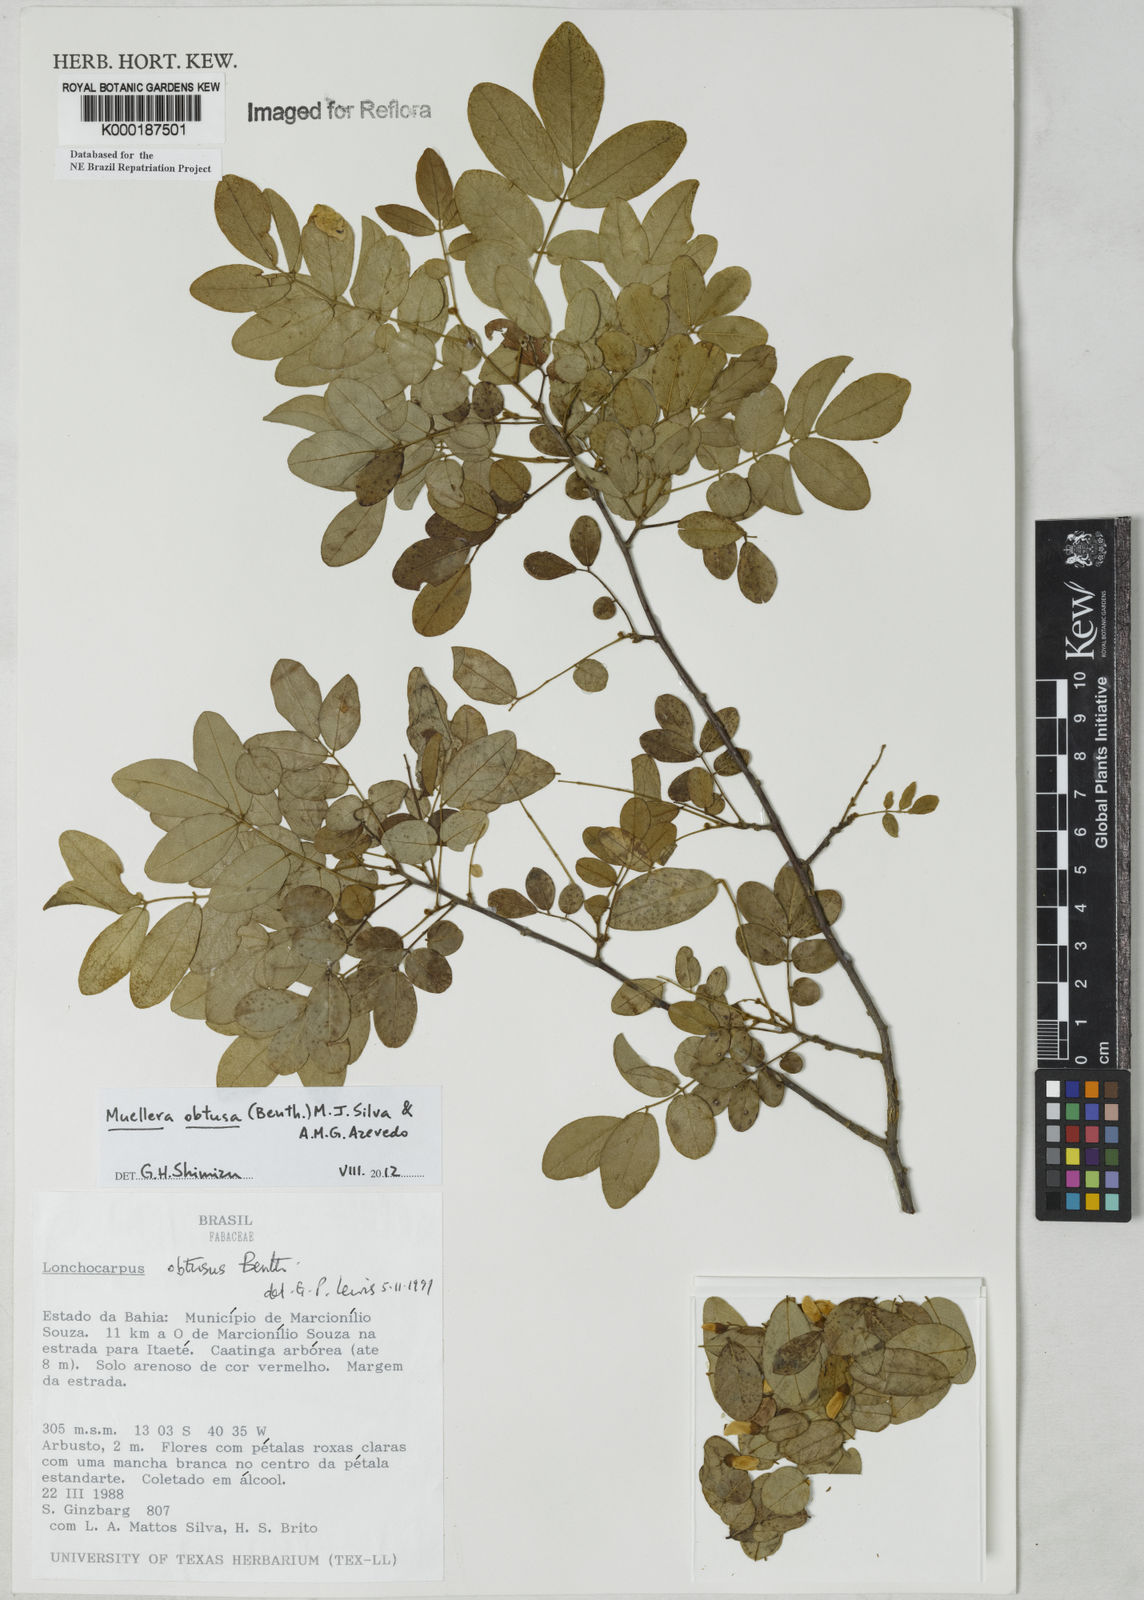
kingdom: Plantae
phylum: Tracheophyta
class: Magnoliopsida
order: Fabales
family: Fabaceae
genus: Muellera
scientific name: Muellera obtusa
